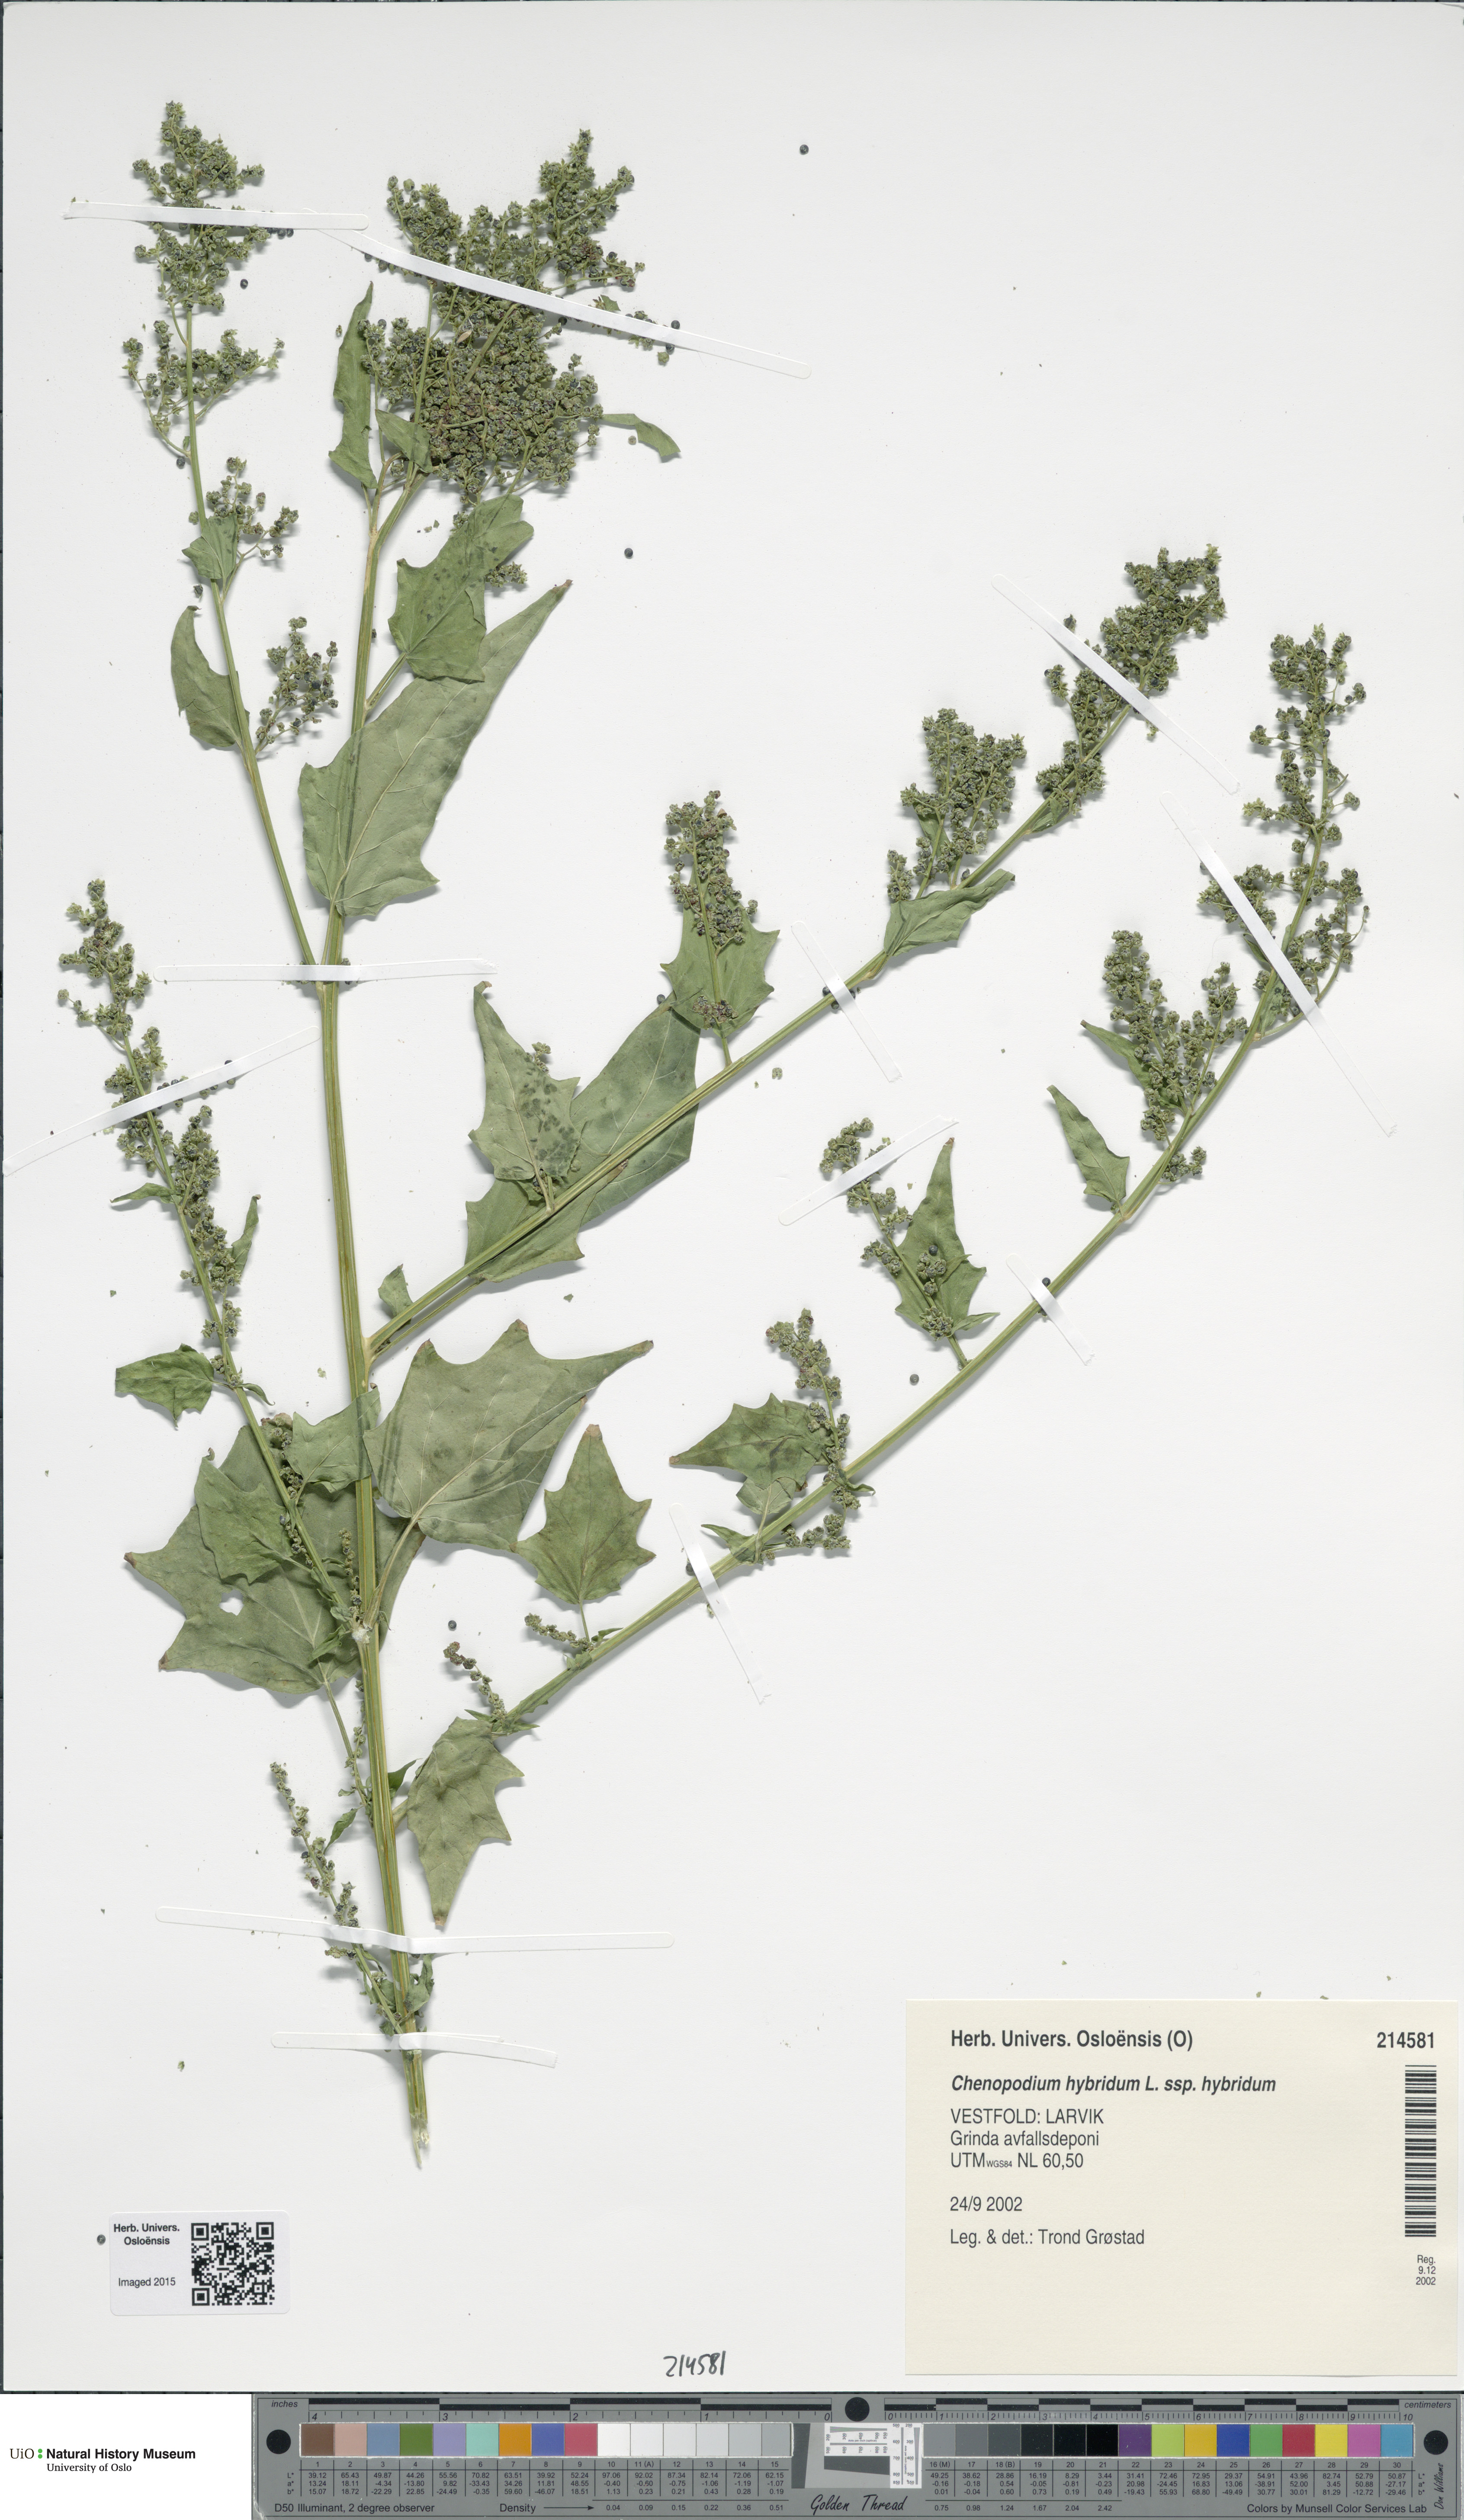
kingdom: Plantae
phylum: Tracheophyta
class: Magnoliopsida
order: Caryophyllales
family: Amaranthaceae
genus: Chenopodiastrum
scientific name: Chenopodiastrum hybridum
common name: Mapleleaf goosefoot
